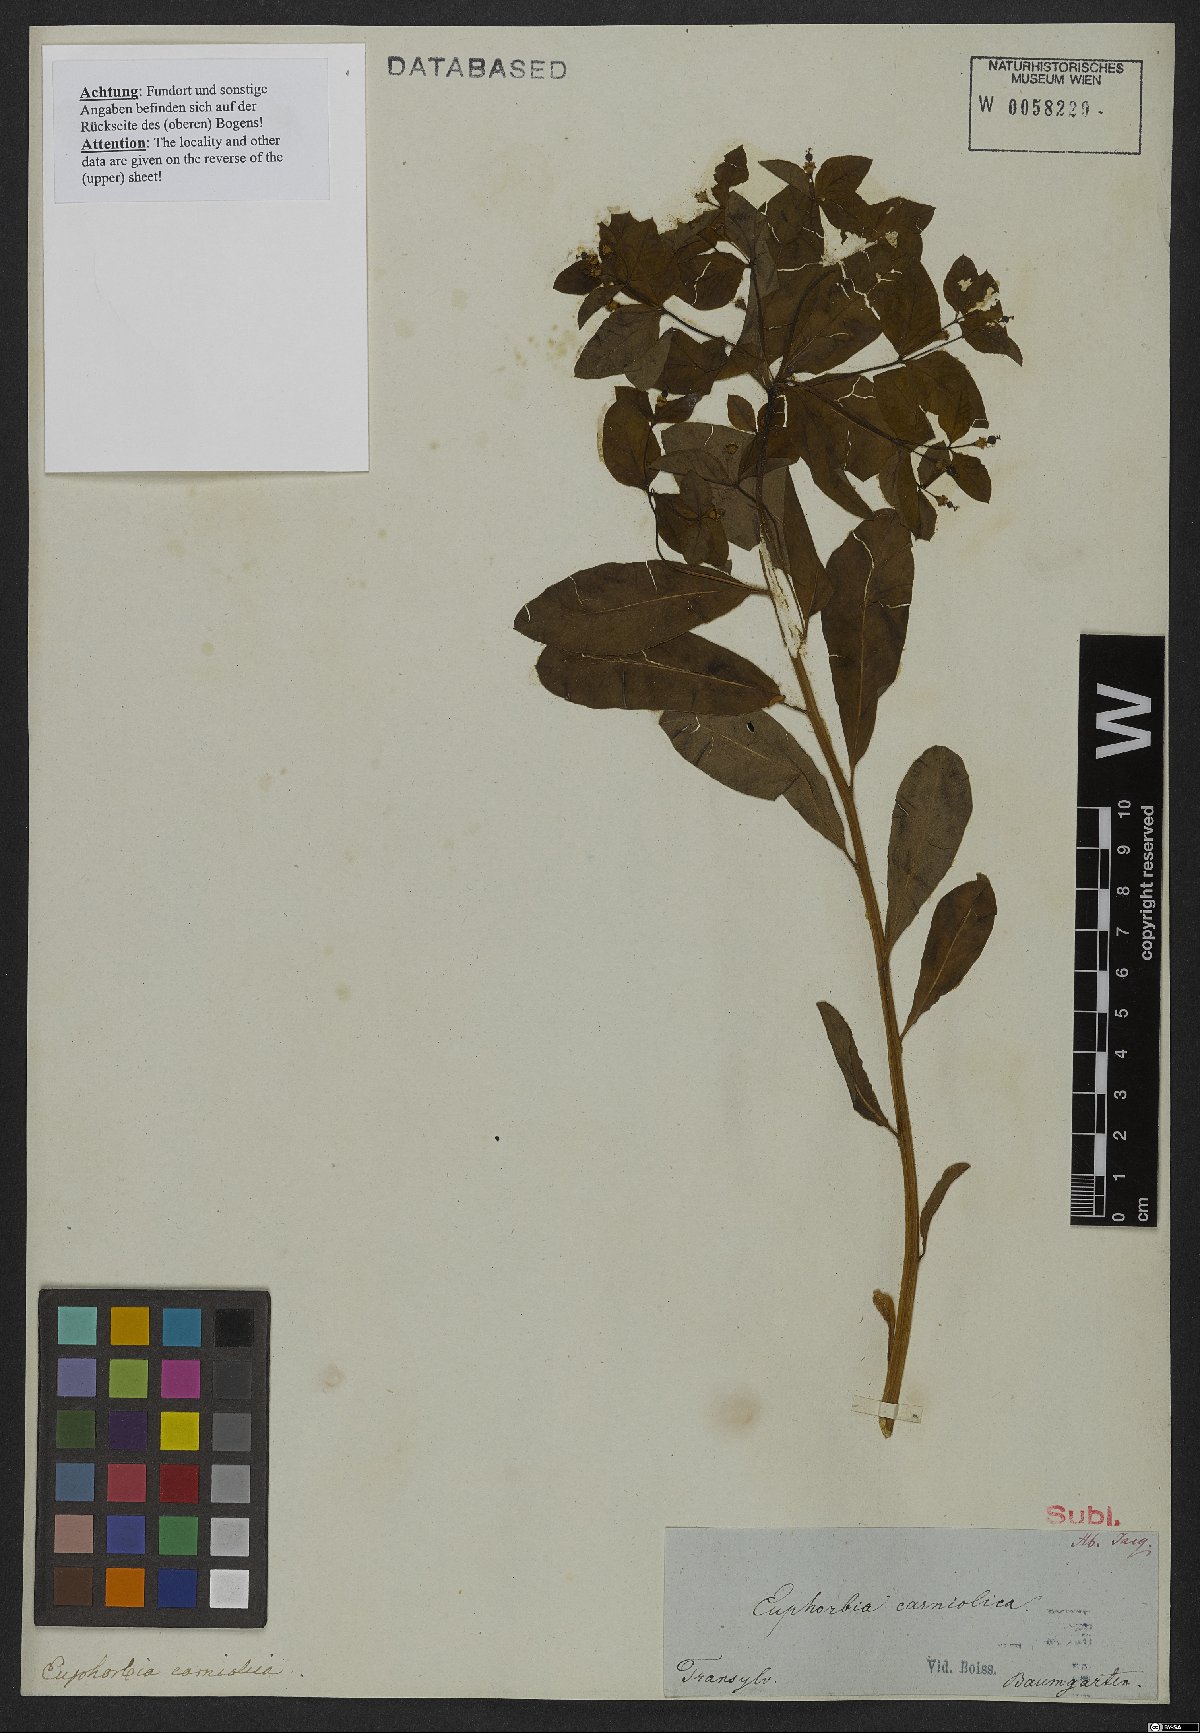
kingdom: Plantae
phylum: Tracheophyta
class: Magnoliopsida
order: Malpighiales
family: Euphorbiaceae
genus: Euphorbia
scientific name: Euphorbia carniolica
